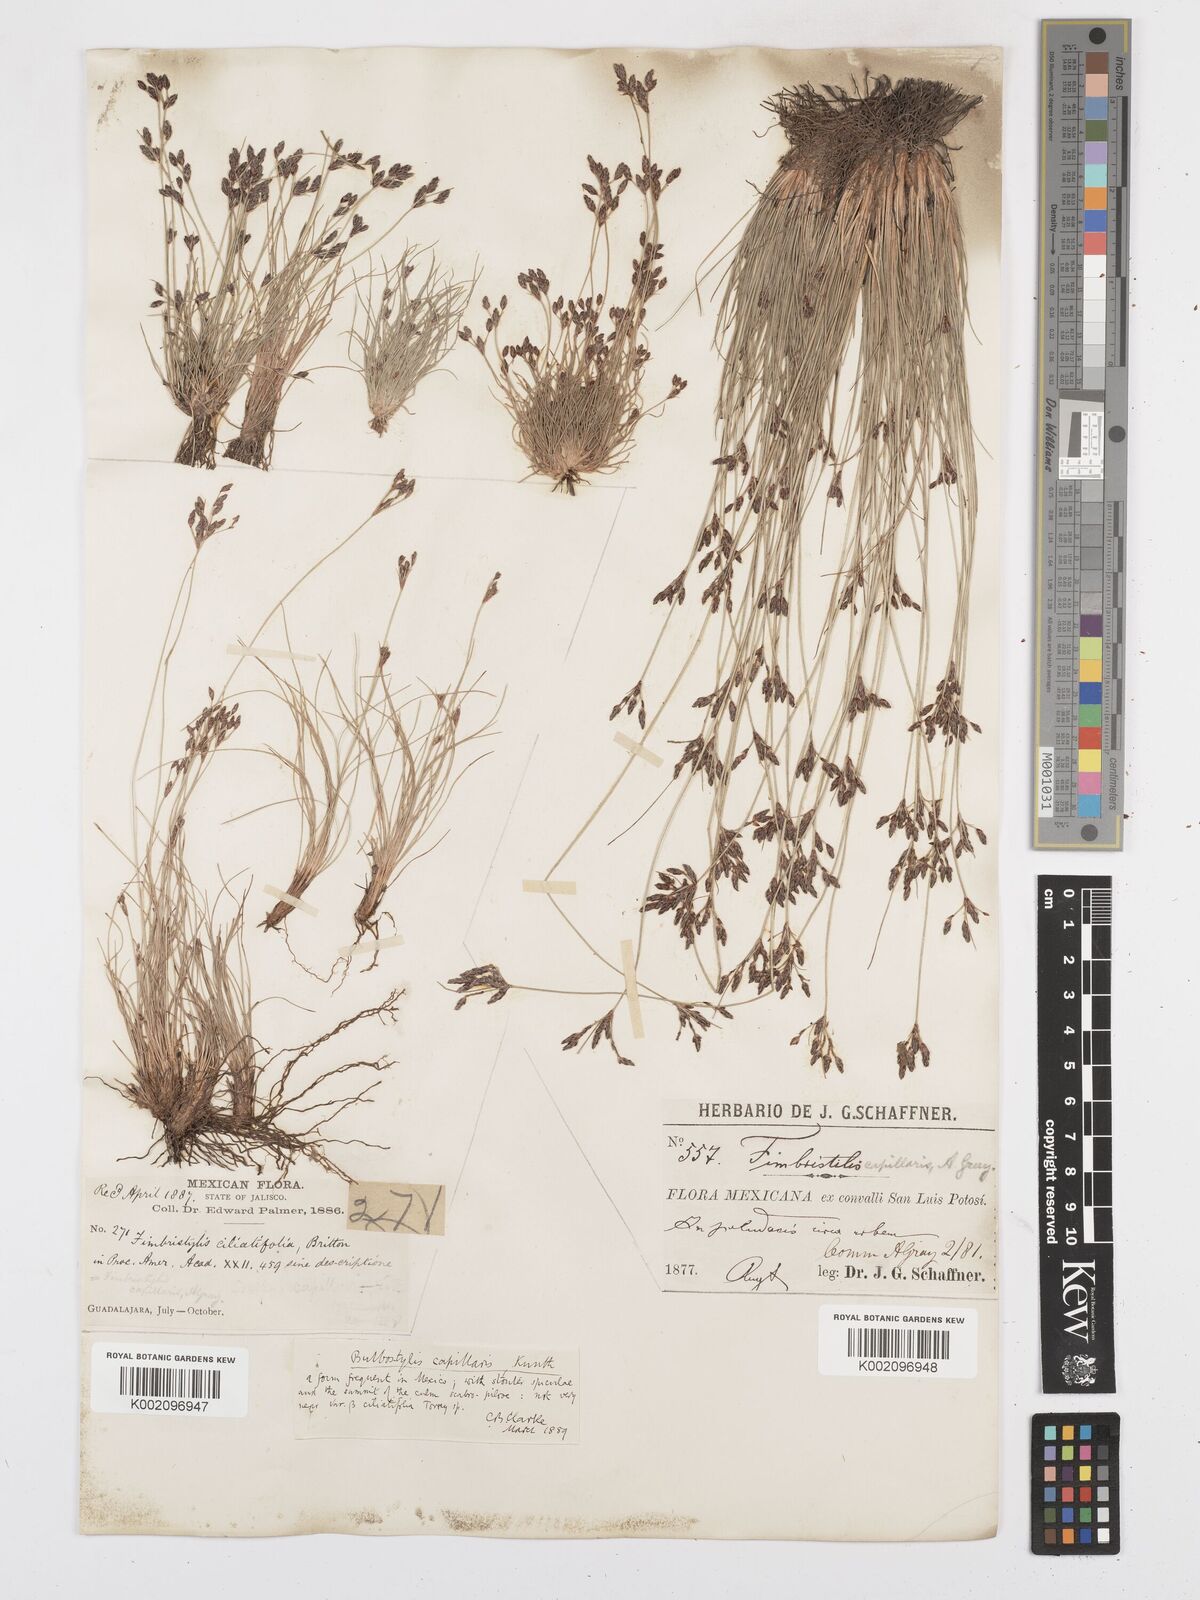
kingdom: Plantae
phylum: Tracheophyta
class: Liliopsida
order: Poales
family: Cyperaceae
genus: Bulbostylis
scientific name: Bulbostylis capillaris
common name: Densetuft hairsedge
